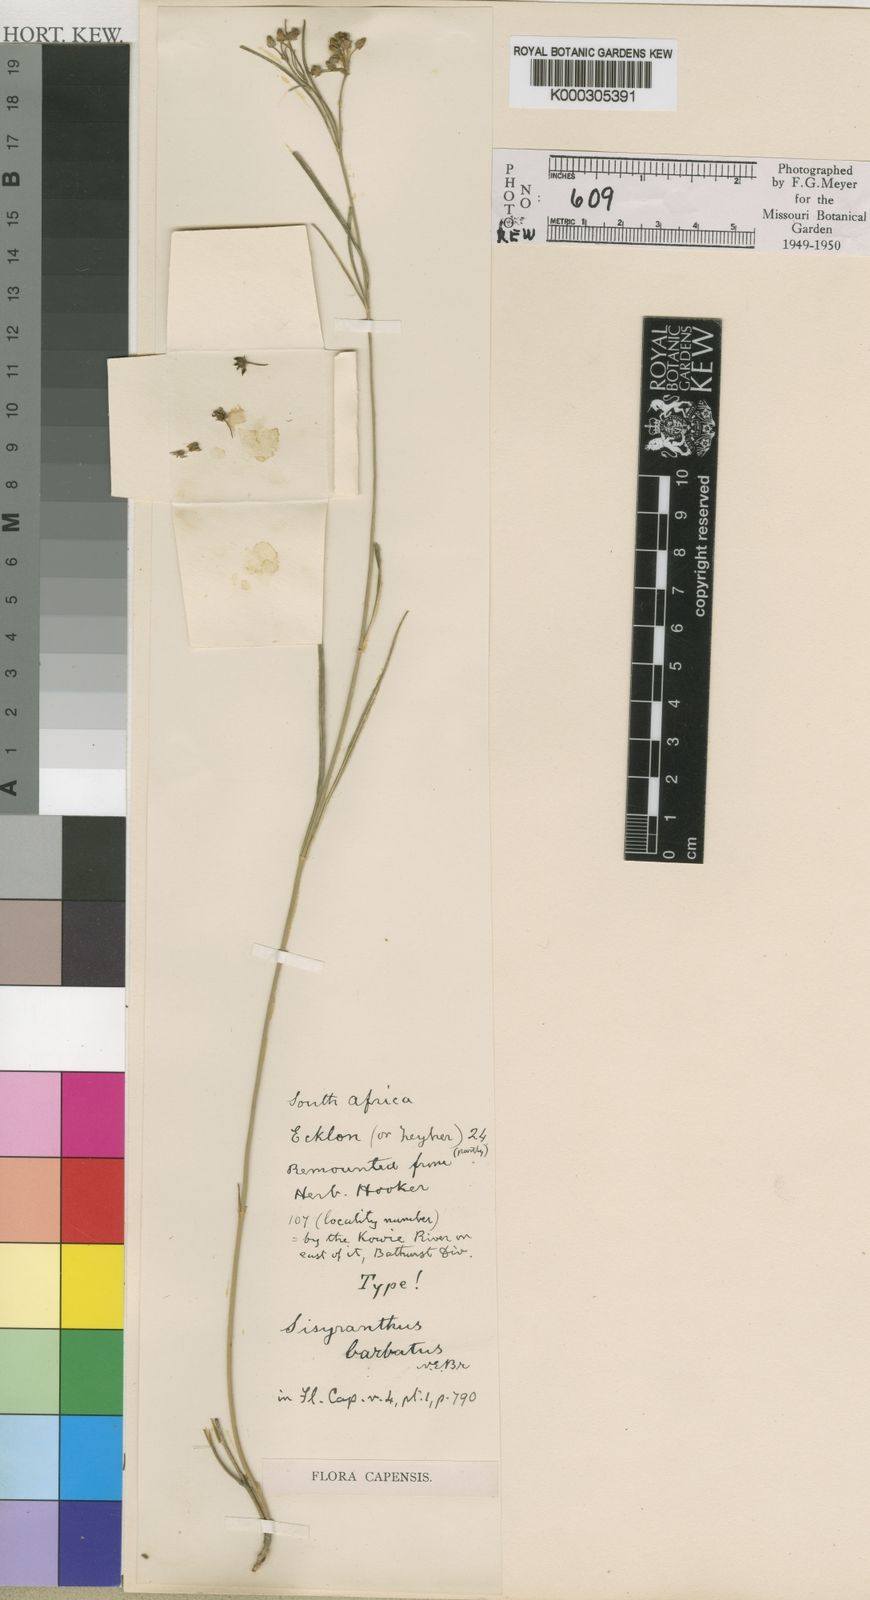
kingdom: Plantae
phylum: Tracheophyta
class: Magnoliopsida
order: Gentianales
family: Apocynaceae
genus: Sisyranthus
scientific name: Sisyranthus barbatus
